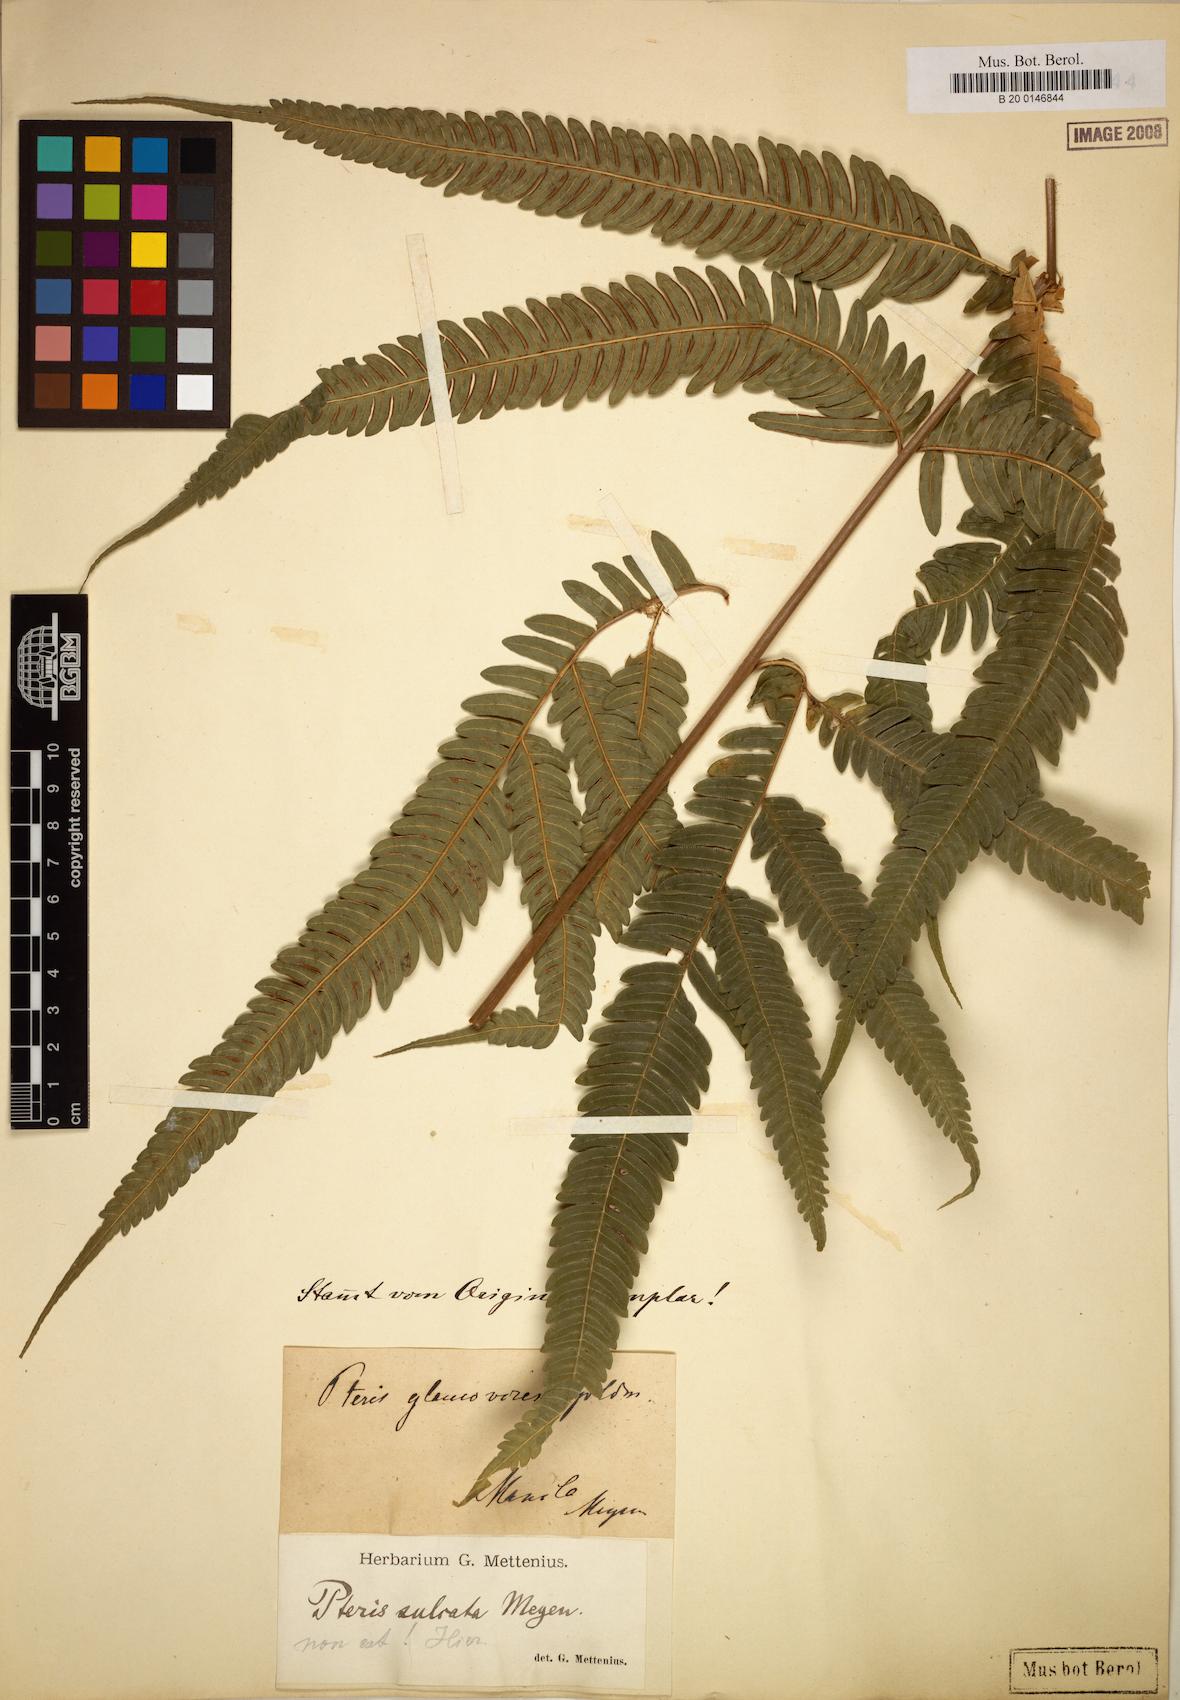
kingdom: Plantae
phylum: Tracheophyta
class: Polypodiopsida
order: Polypodiales
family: Pteridaceae
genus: Pteris
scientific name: Pteris glaucovirens
